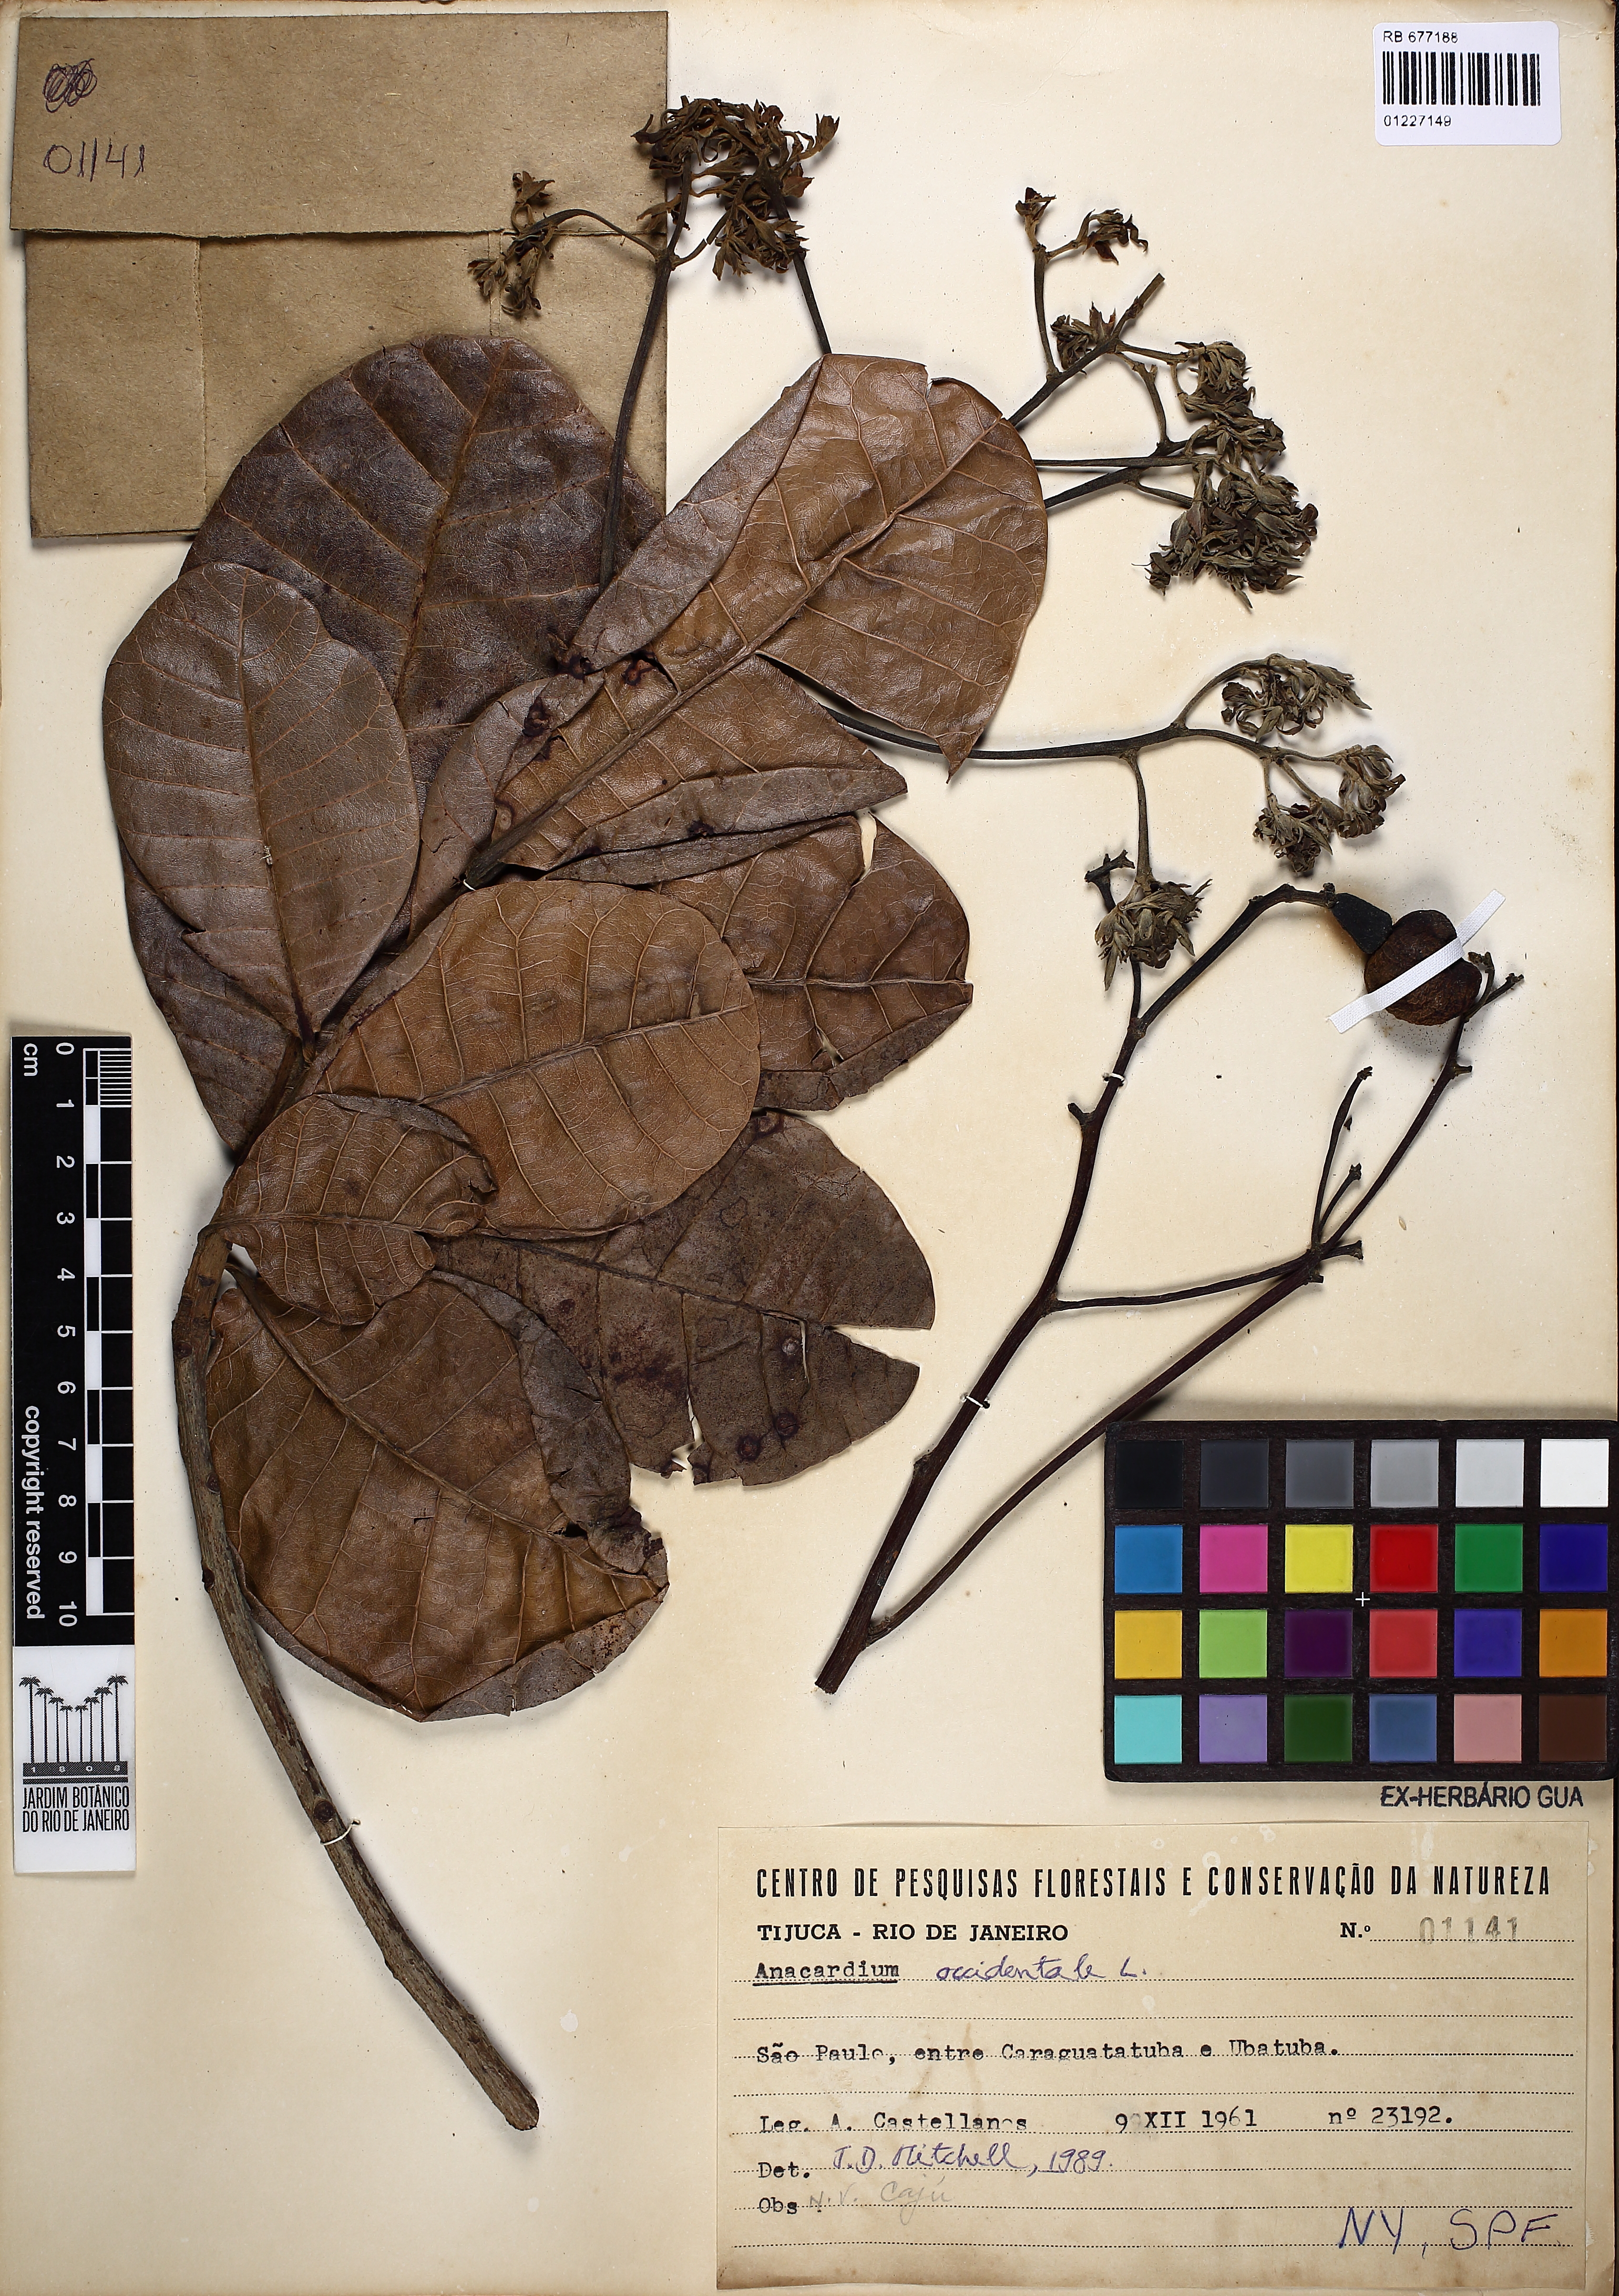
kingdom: Plantae
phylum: Tracheophyta
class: Magnoliopsida
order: Sapindales
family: Anacardiaceae
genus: Anacardium
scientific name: Anacardium occidentale
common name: Cashew
